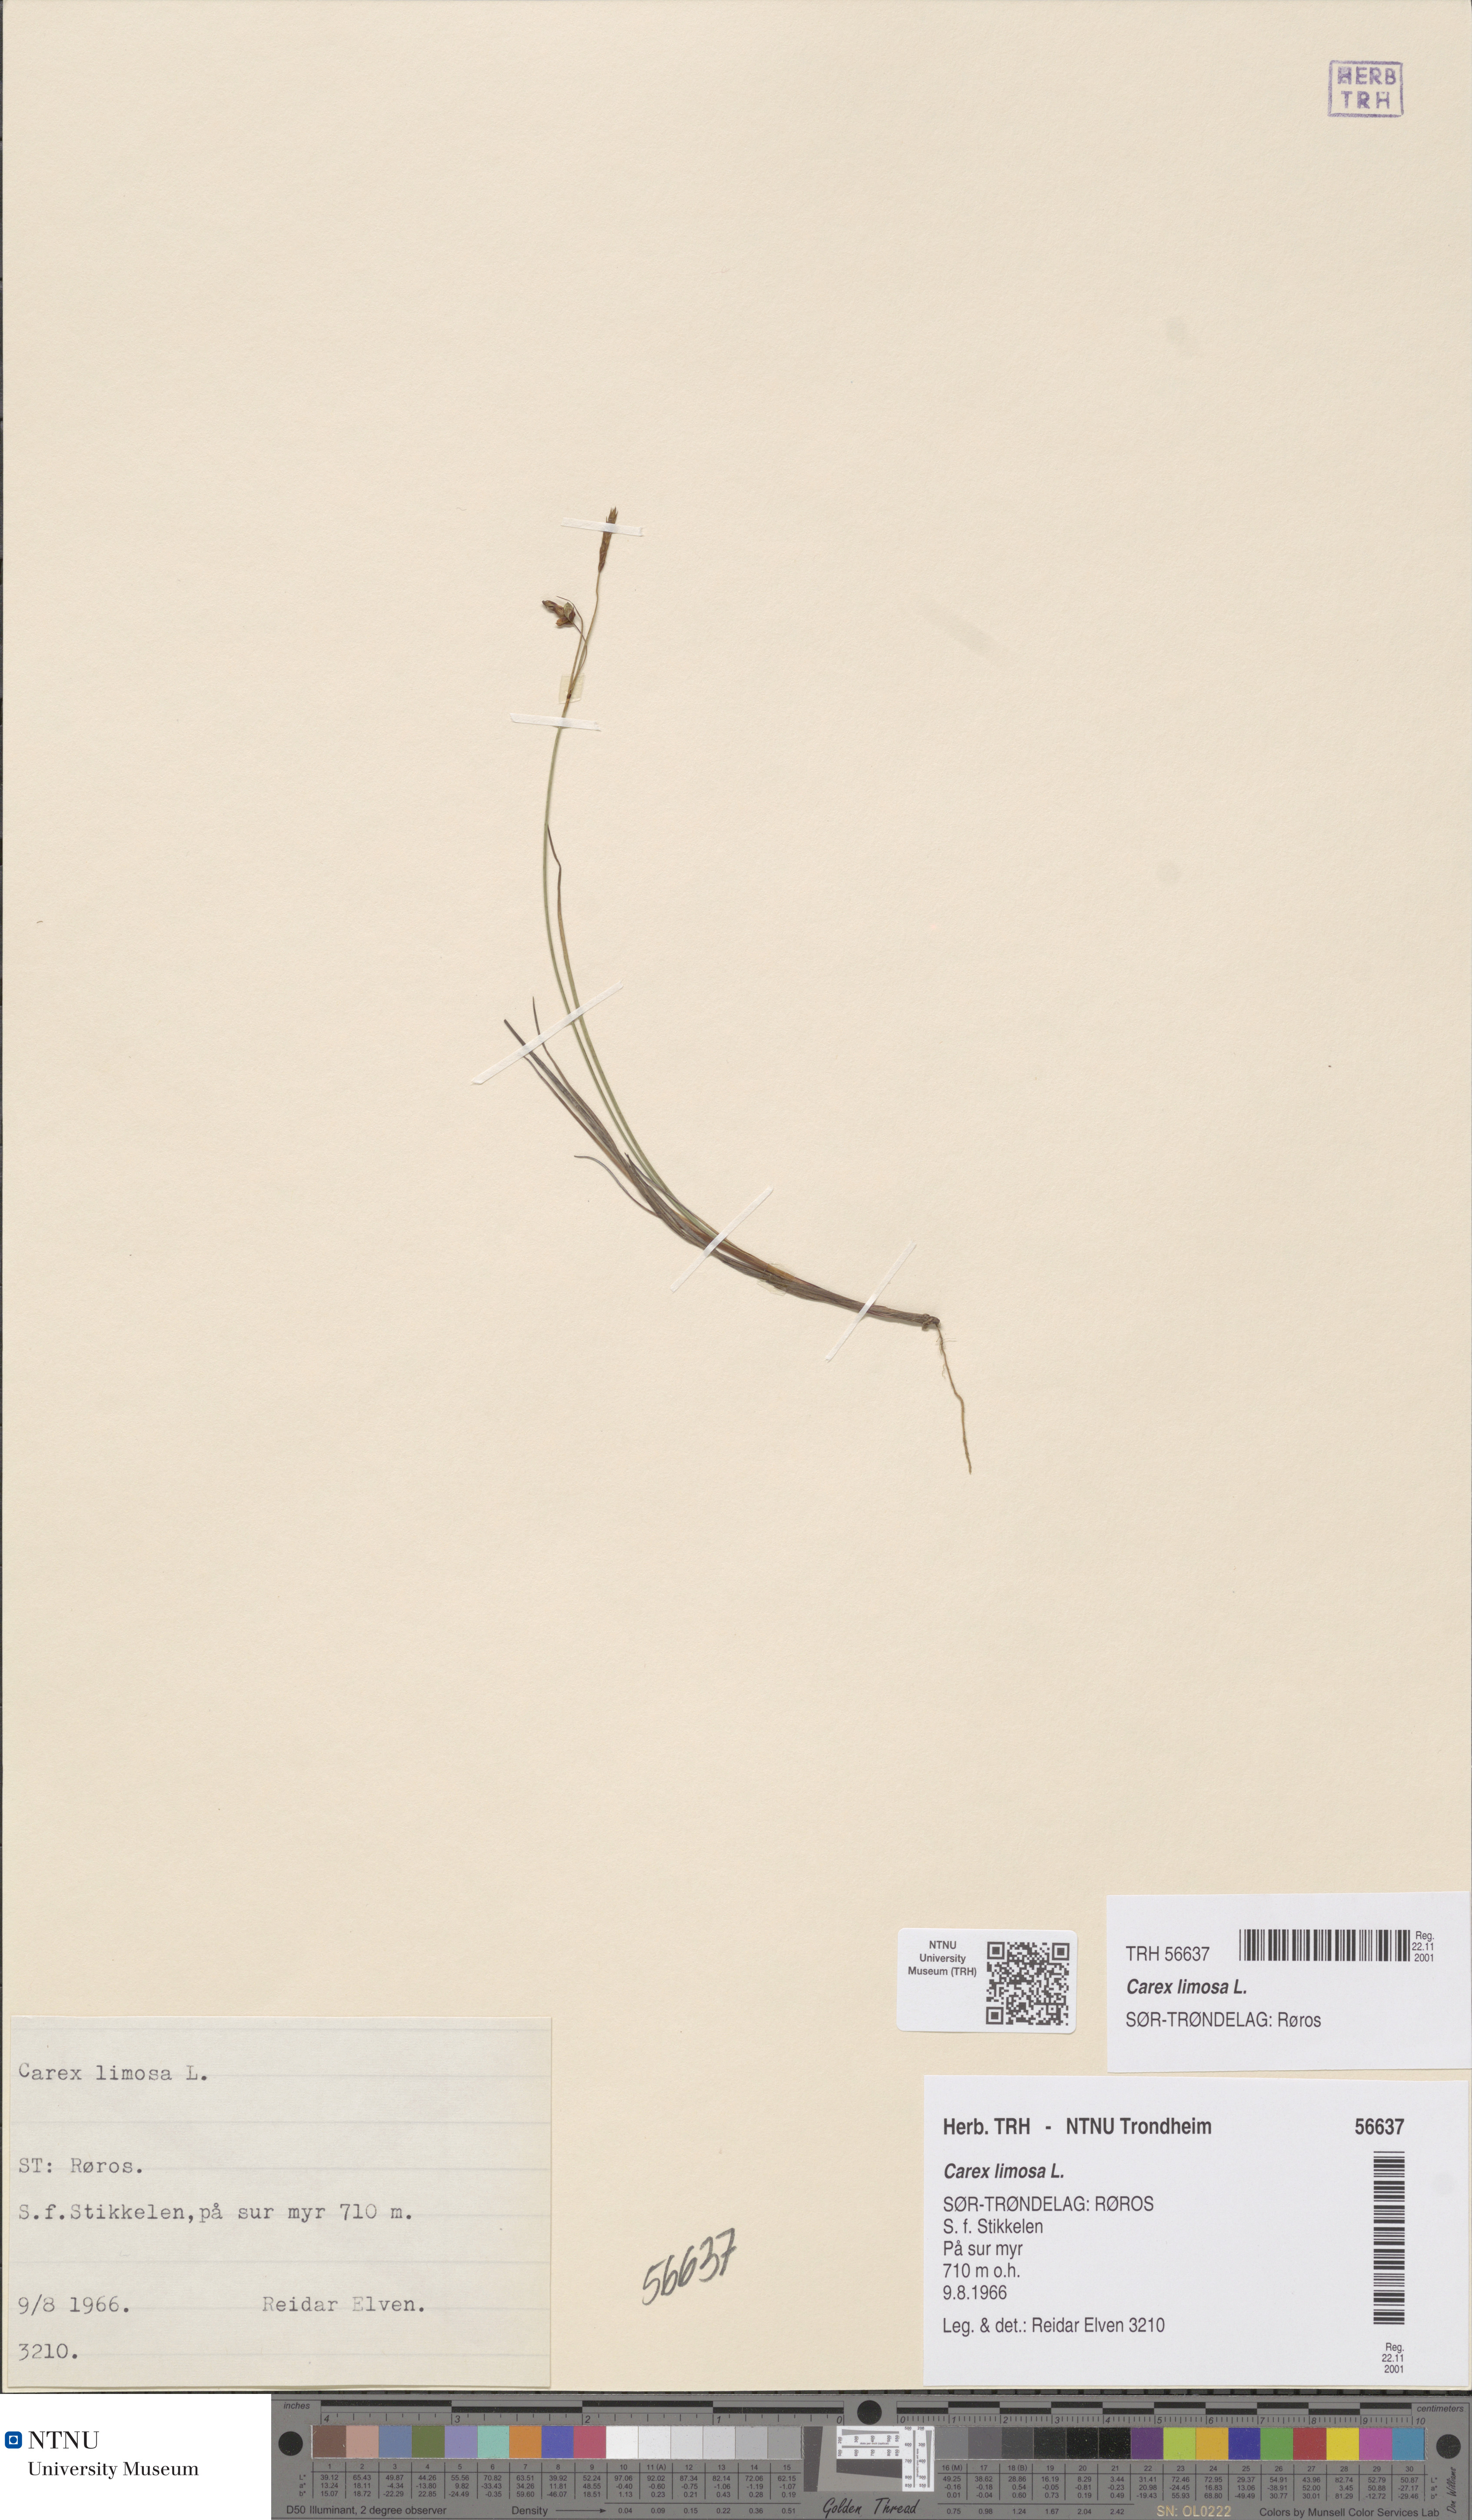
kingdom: Plantae
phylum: Tracheophyta
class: Liliopsida
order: Poales
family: Cyperaceae
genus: Carex
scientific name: Carex limosa
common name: Bog sedge
